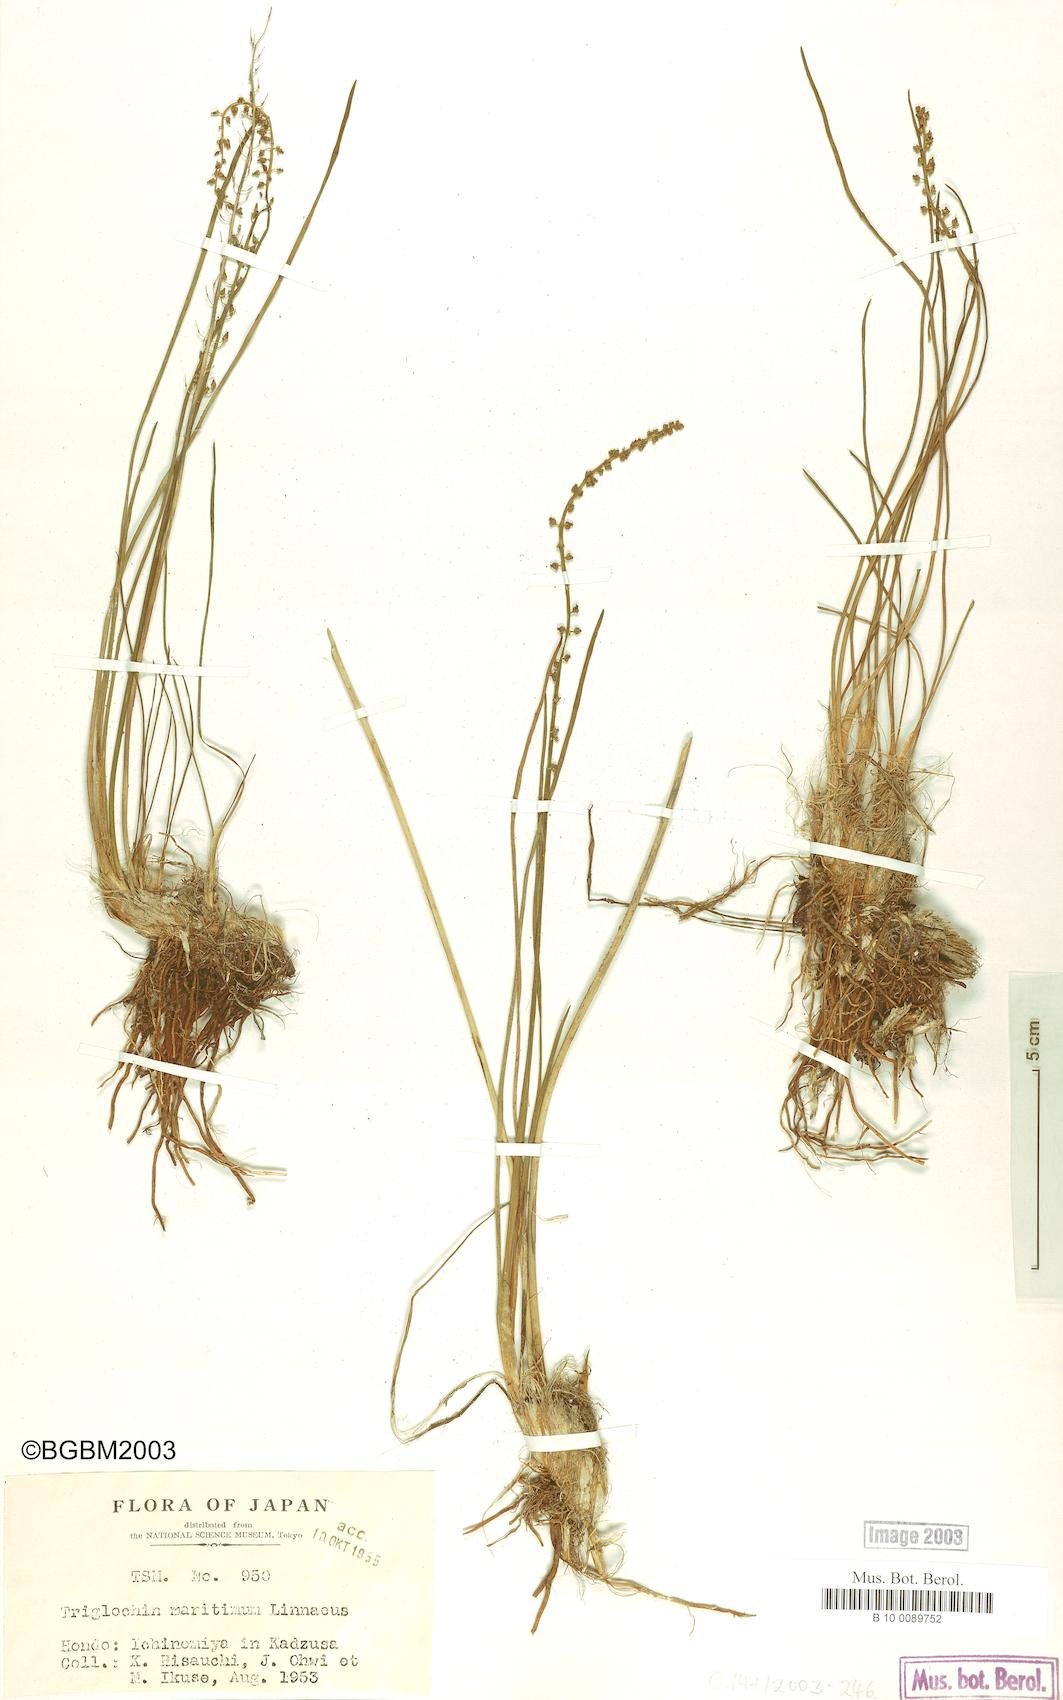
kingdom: Plantae
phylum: Tracheophyta
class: Liliopsida
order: Alismatales
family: Juncaginaceae
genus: Triglochin
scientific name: Triglochin maritima
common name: Sea arrowgrass
